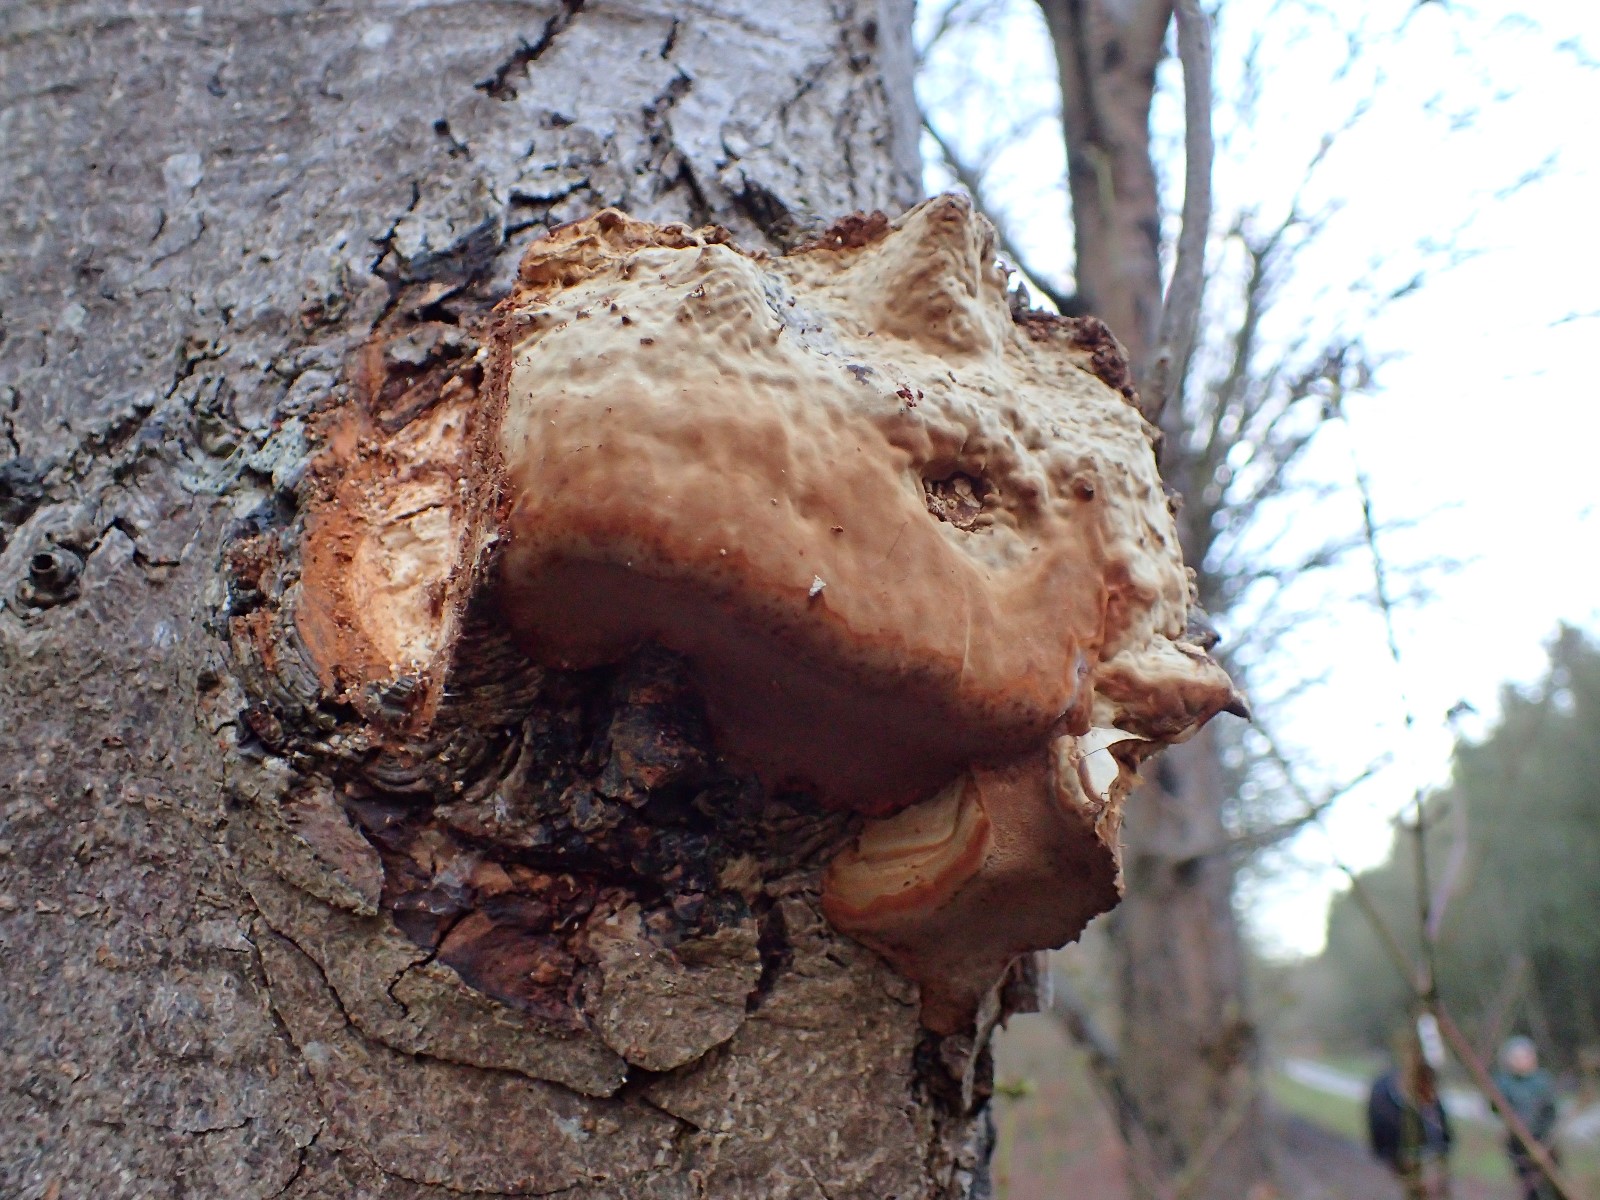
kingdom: Fungi
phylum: Basidiomycota
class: Agaricomycetes
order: Polyporales
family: Polyporaceae
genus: Fomes
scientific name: Fomes fomentarius
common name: tøndersvamp
